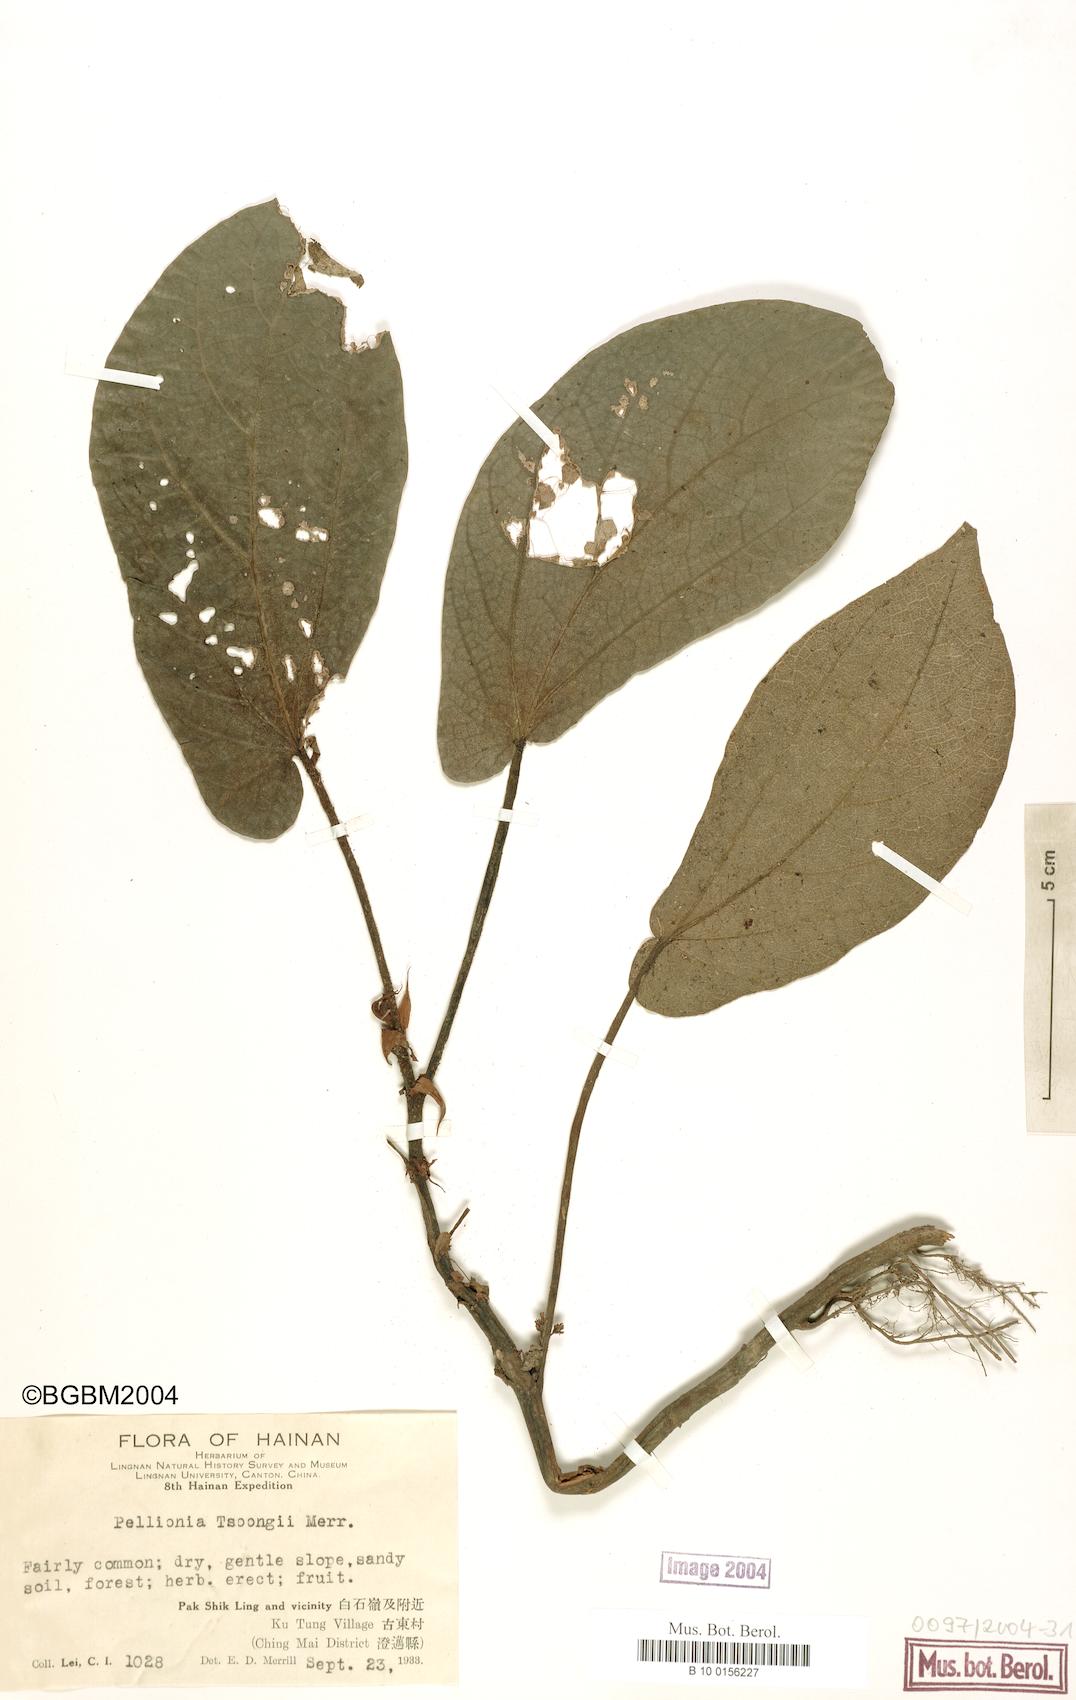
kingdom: Plantae
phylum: Tracheophyta
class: Magnoliopsida
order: Rosales
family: Urticaceae
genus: Elatostema
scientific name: Elatostema latifolium
